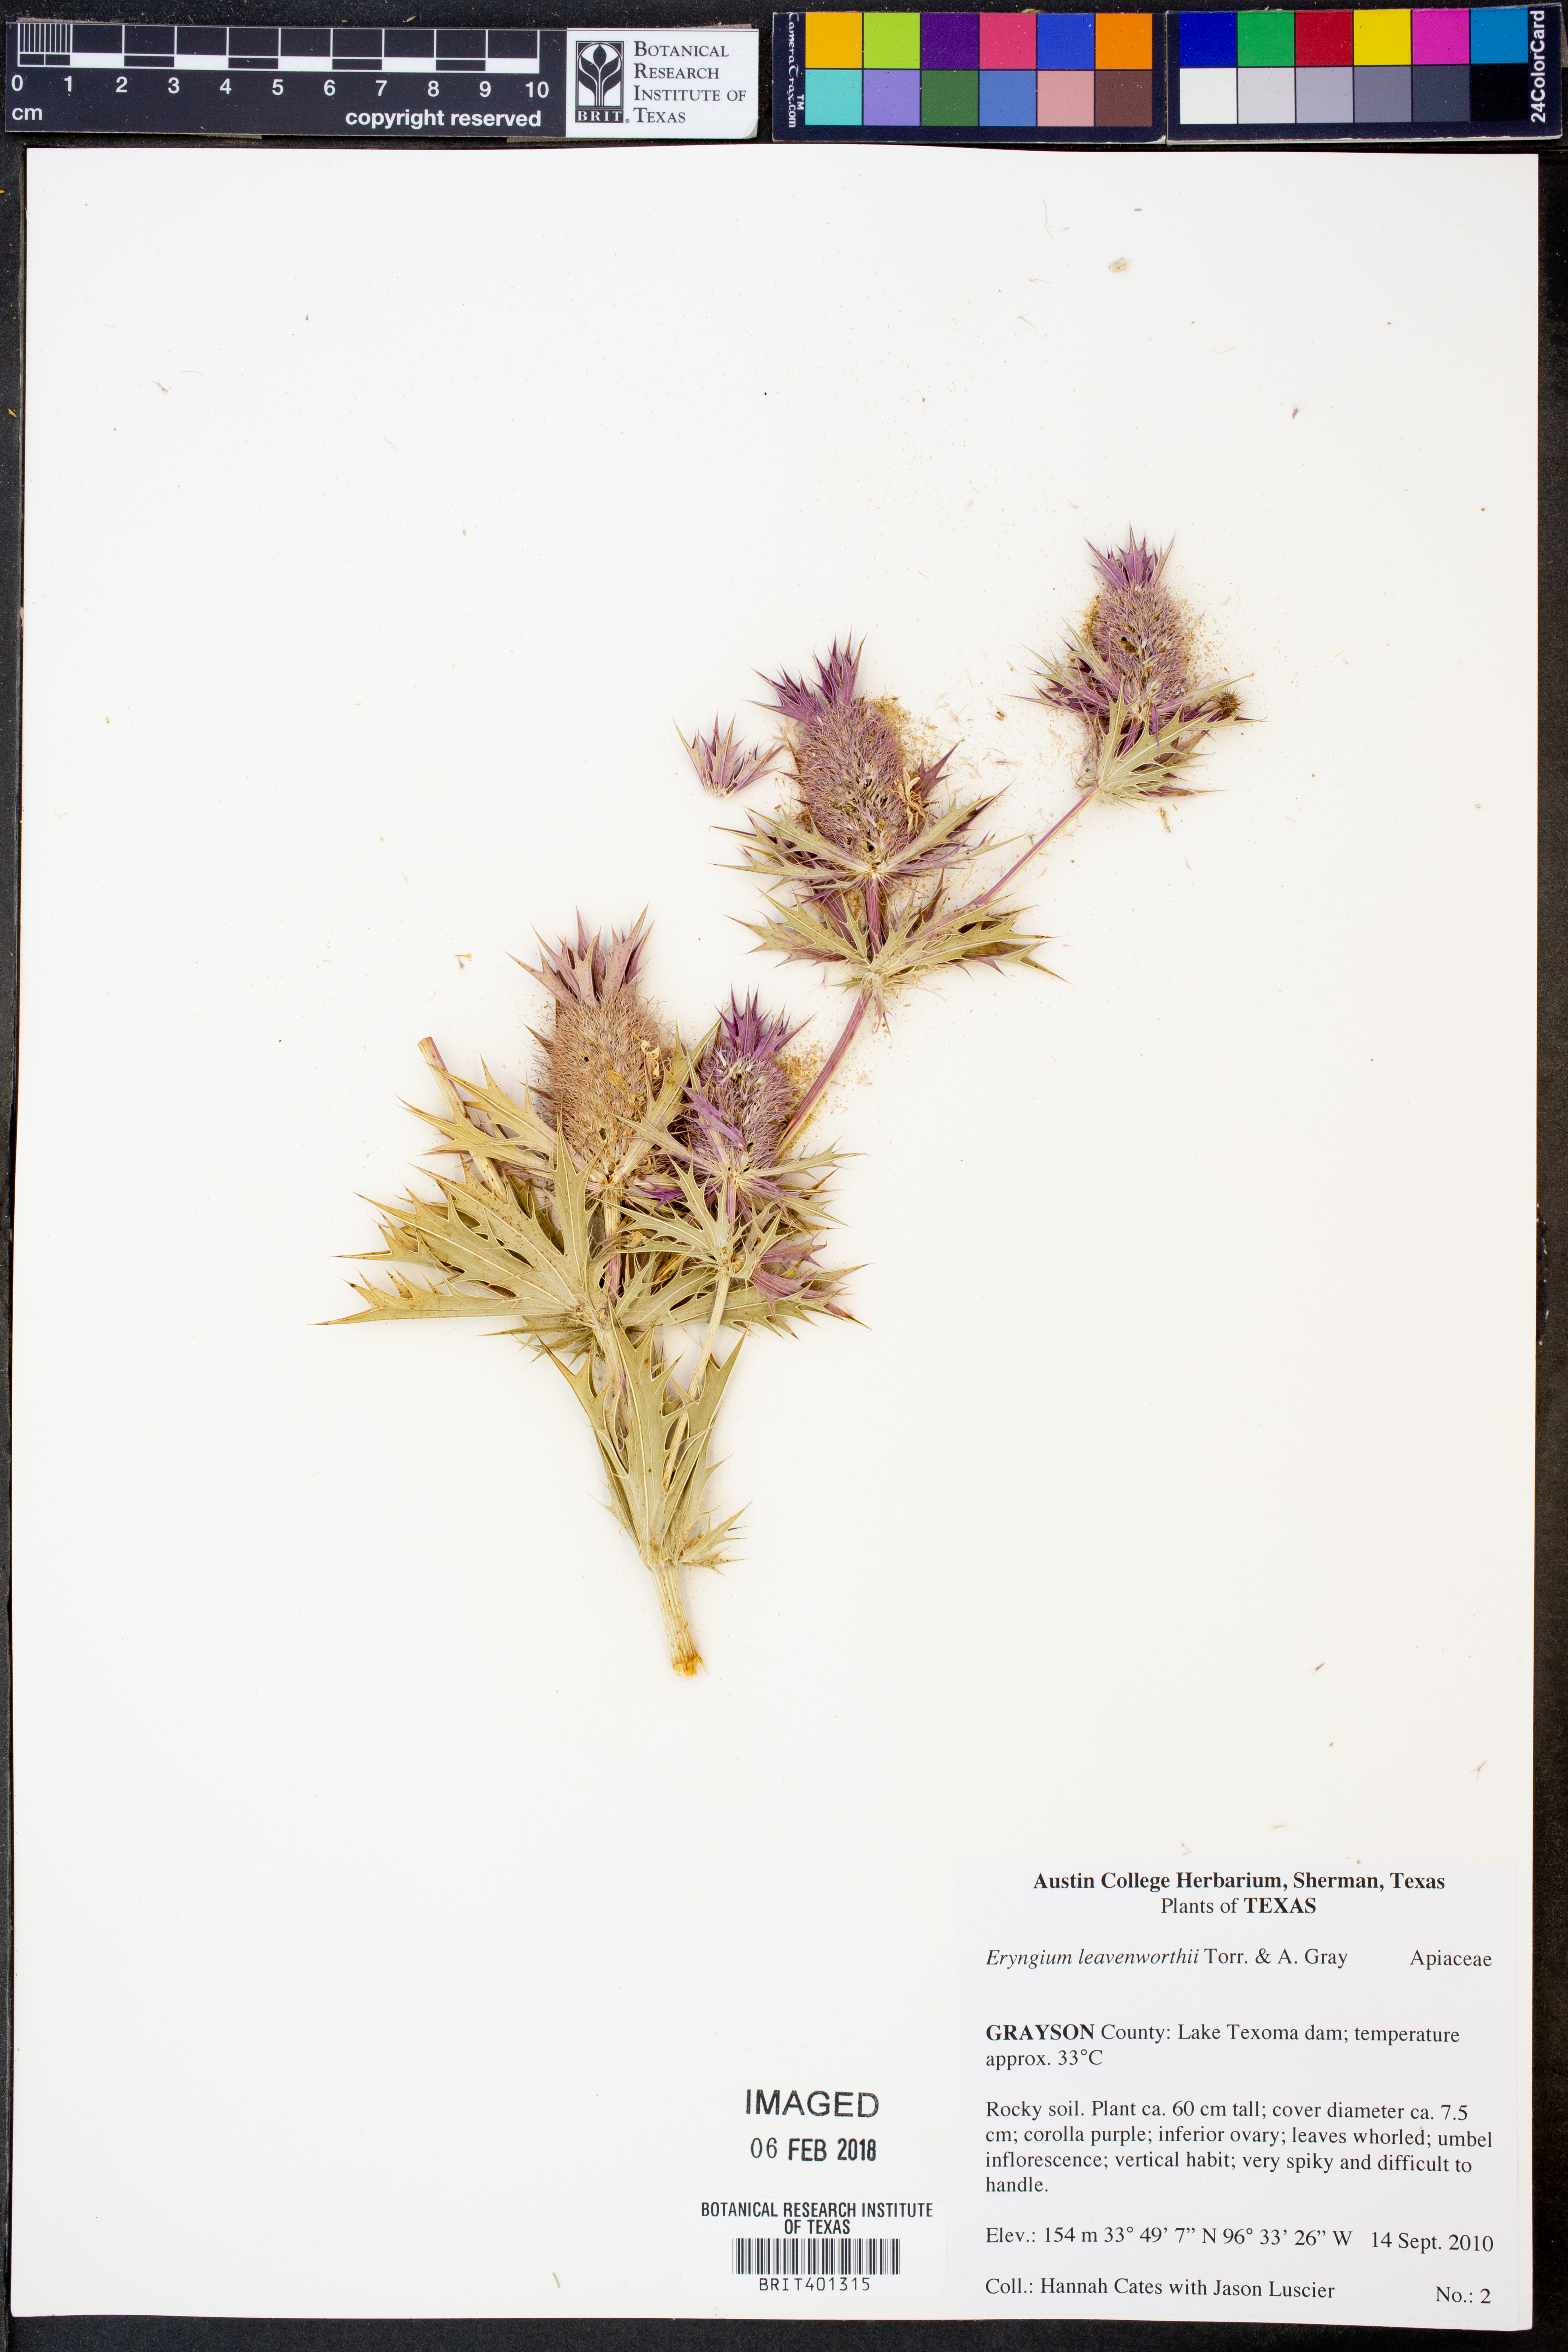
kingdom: Plantae
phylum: Tracheophyta
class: Magnoliopsida
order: Apiales
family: Apiaceae
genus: Eryngium
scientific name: Eryngium leavenworthii
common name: Leavenworth's eryngo
